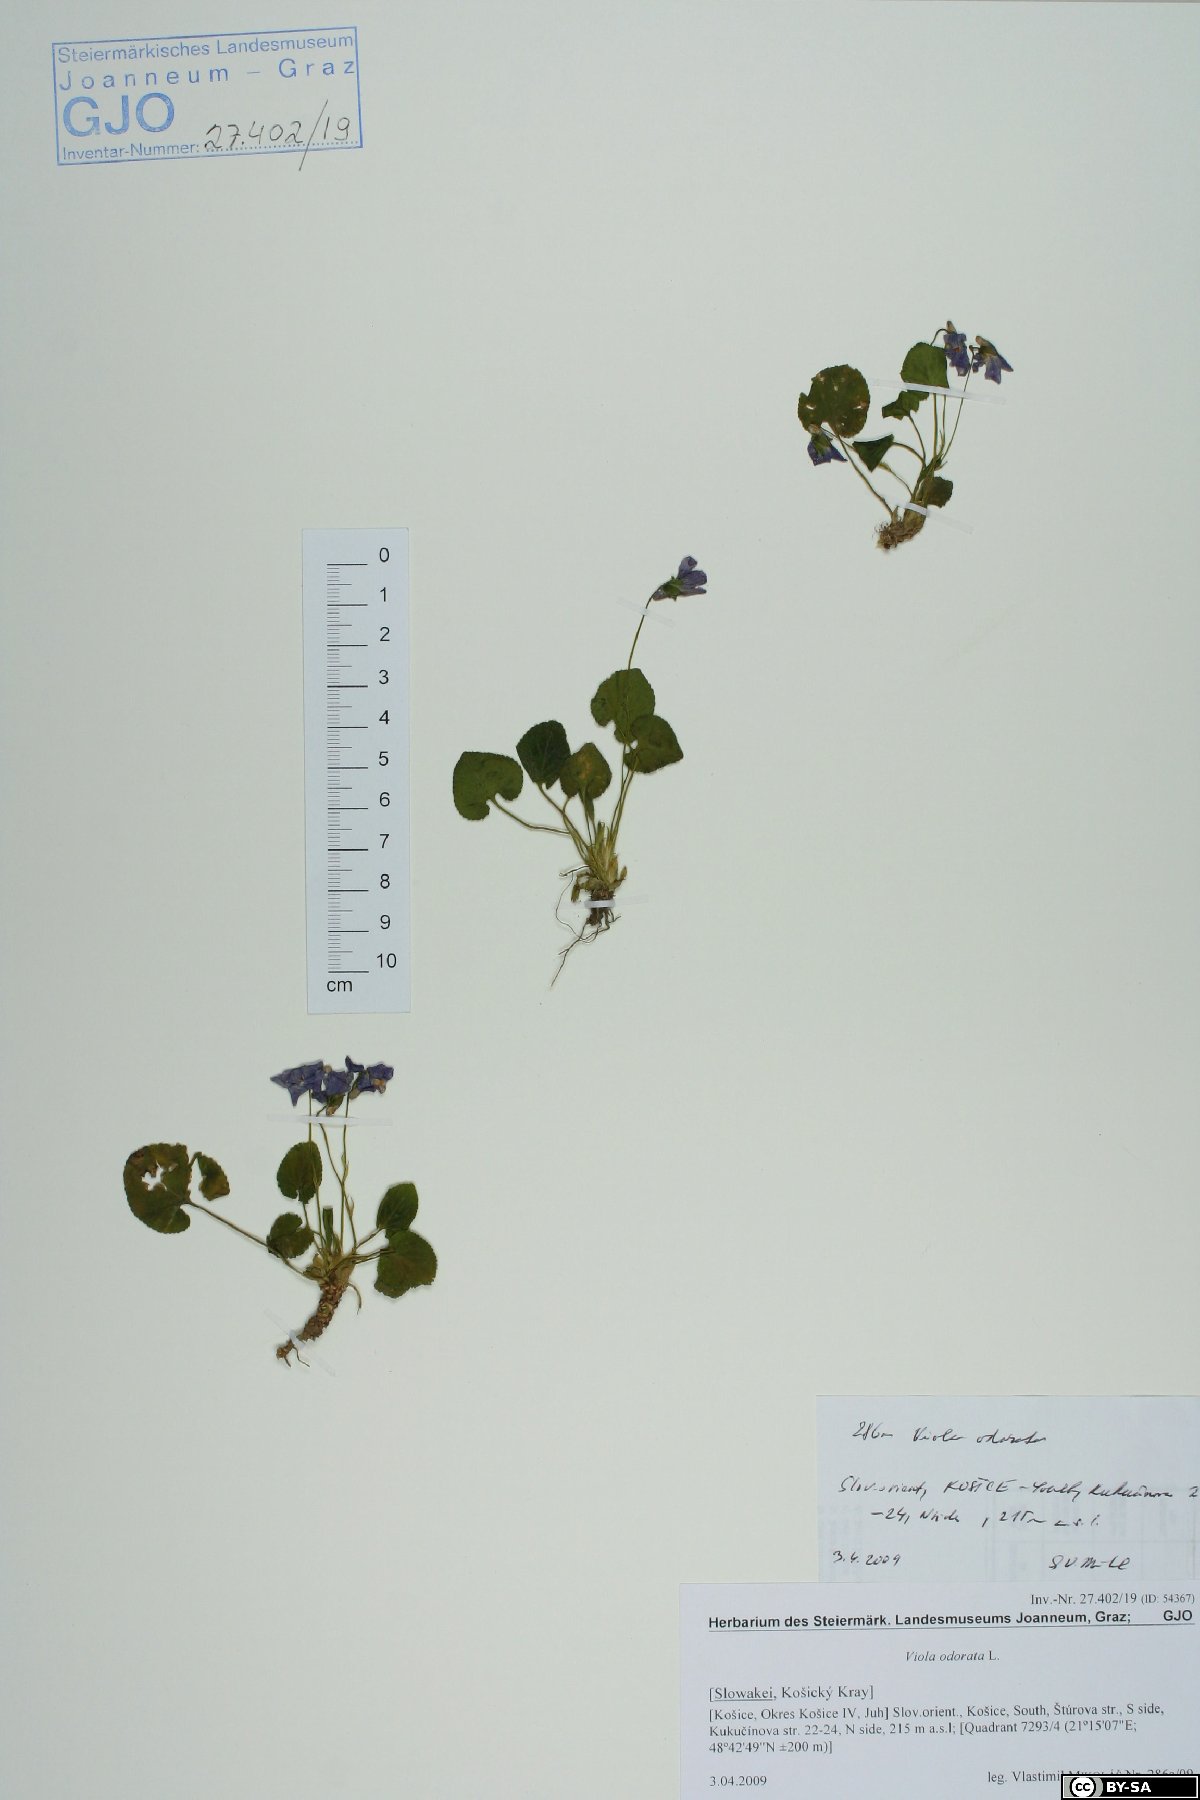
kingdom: Plantae
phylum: Tracheophyta
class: Magnoliopsida
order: Malpighiales
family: Violaceae
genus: Viola
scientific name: Viola odorata
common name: Sweet violet
